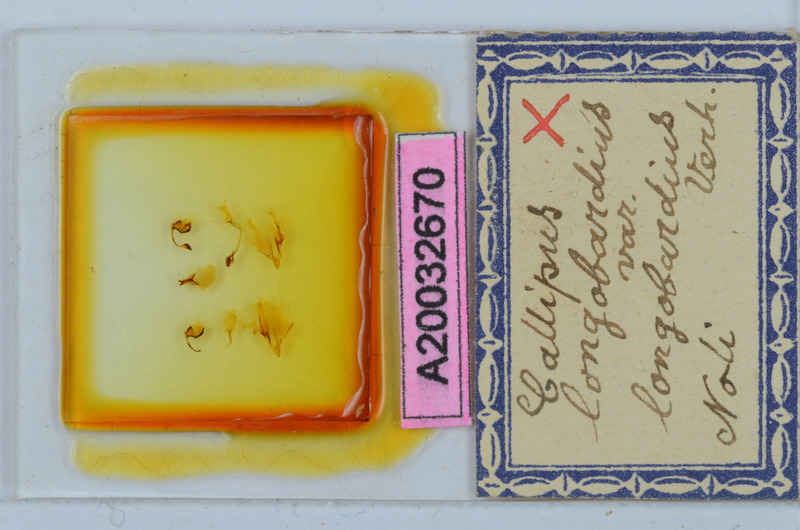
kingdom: Animalia
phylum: Arthropoda
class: Diplopoda
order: Callipodida
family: Callipodidae
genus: Callipus
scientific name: Callipus foetidissimus
